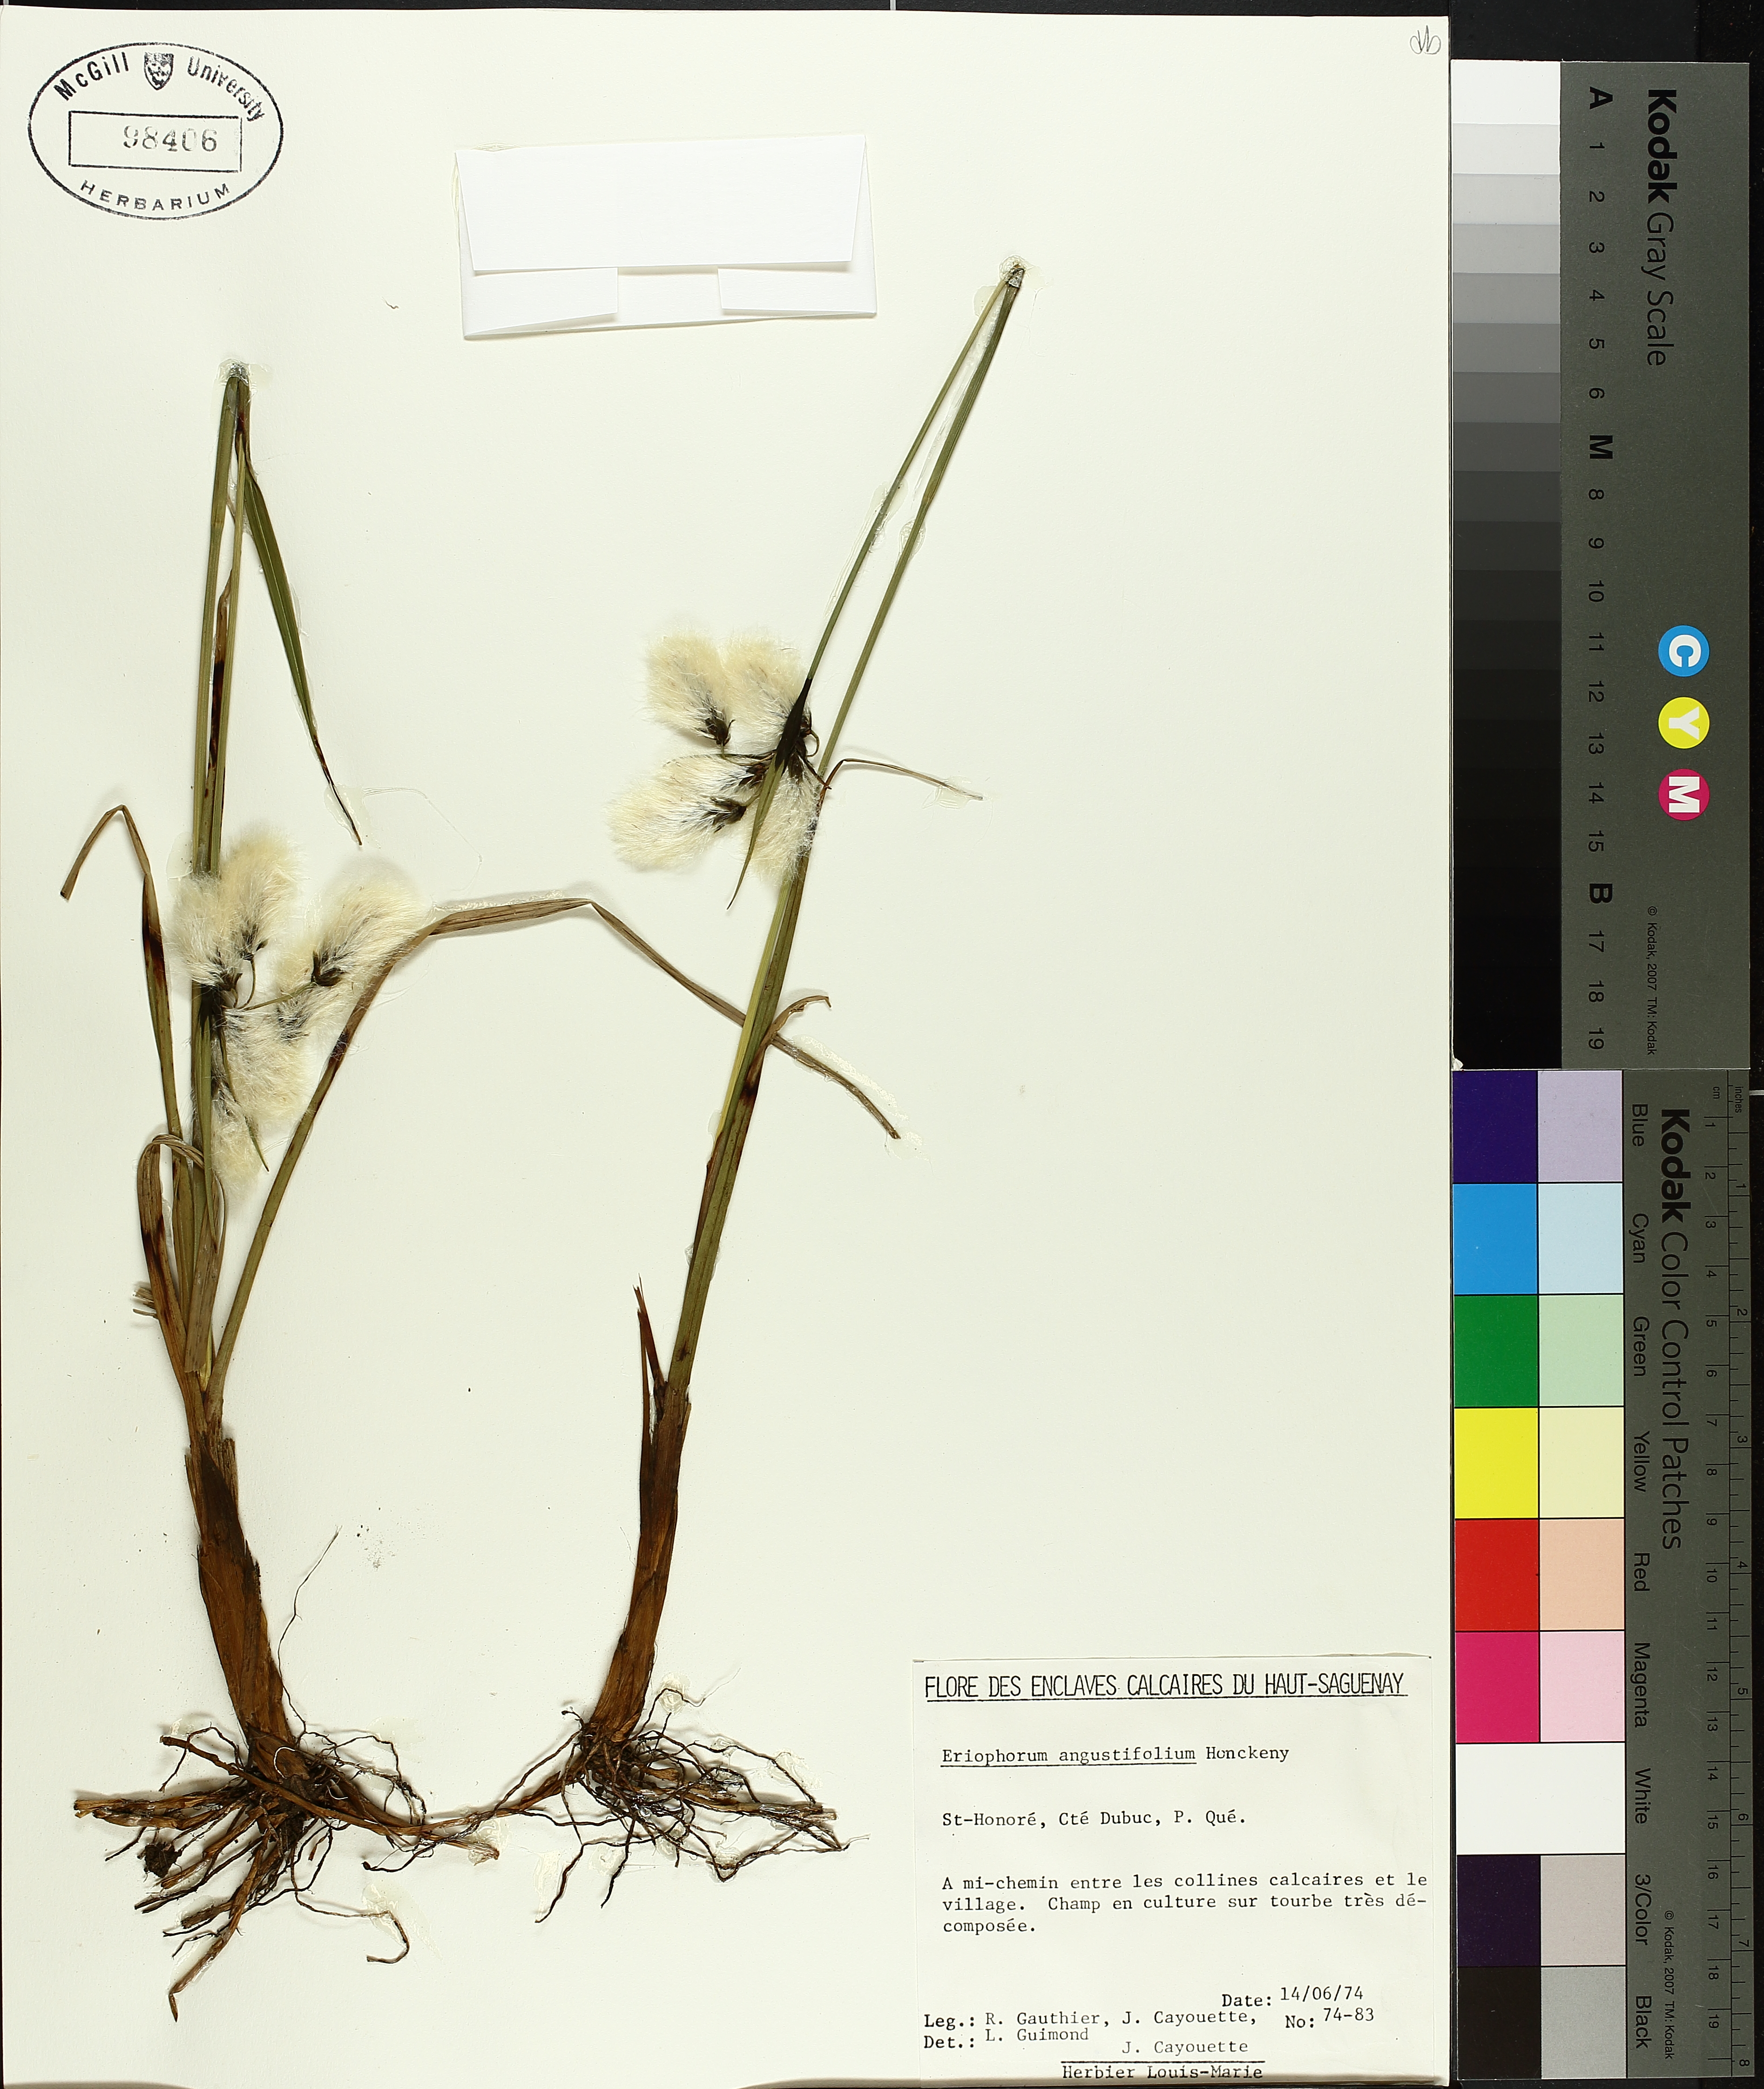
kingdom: Plantae
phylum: Tracheophyta
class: Liliopsida
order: Poales
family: Cyperaceae
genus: Eriophorum
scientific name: Eriophorum triste
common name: Tall cottongrass
